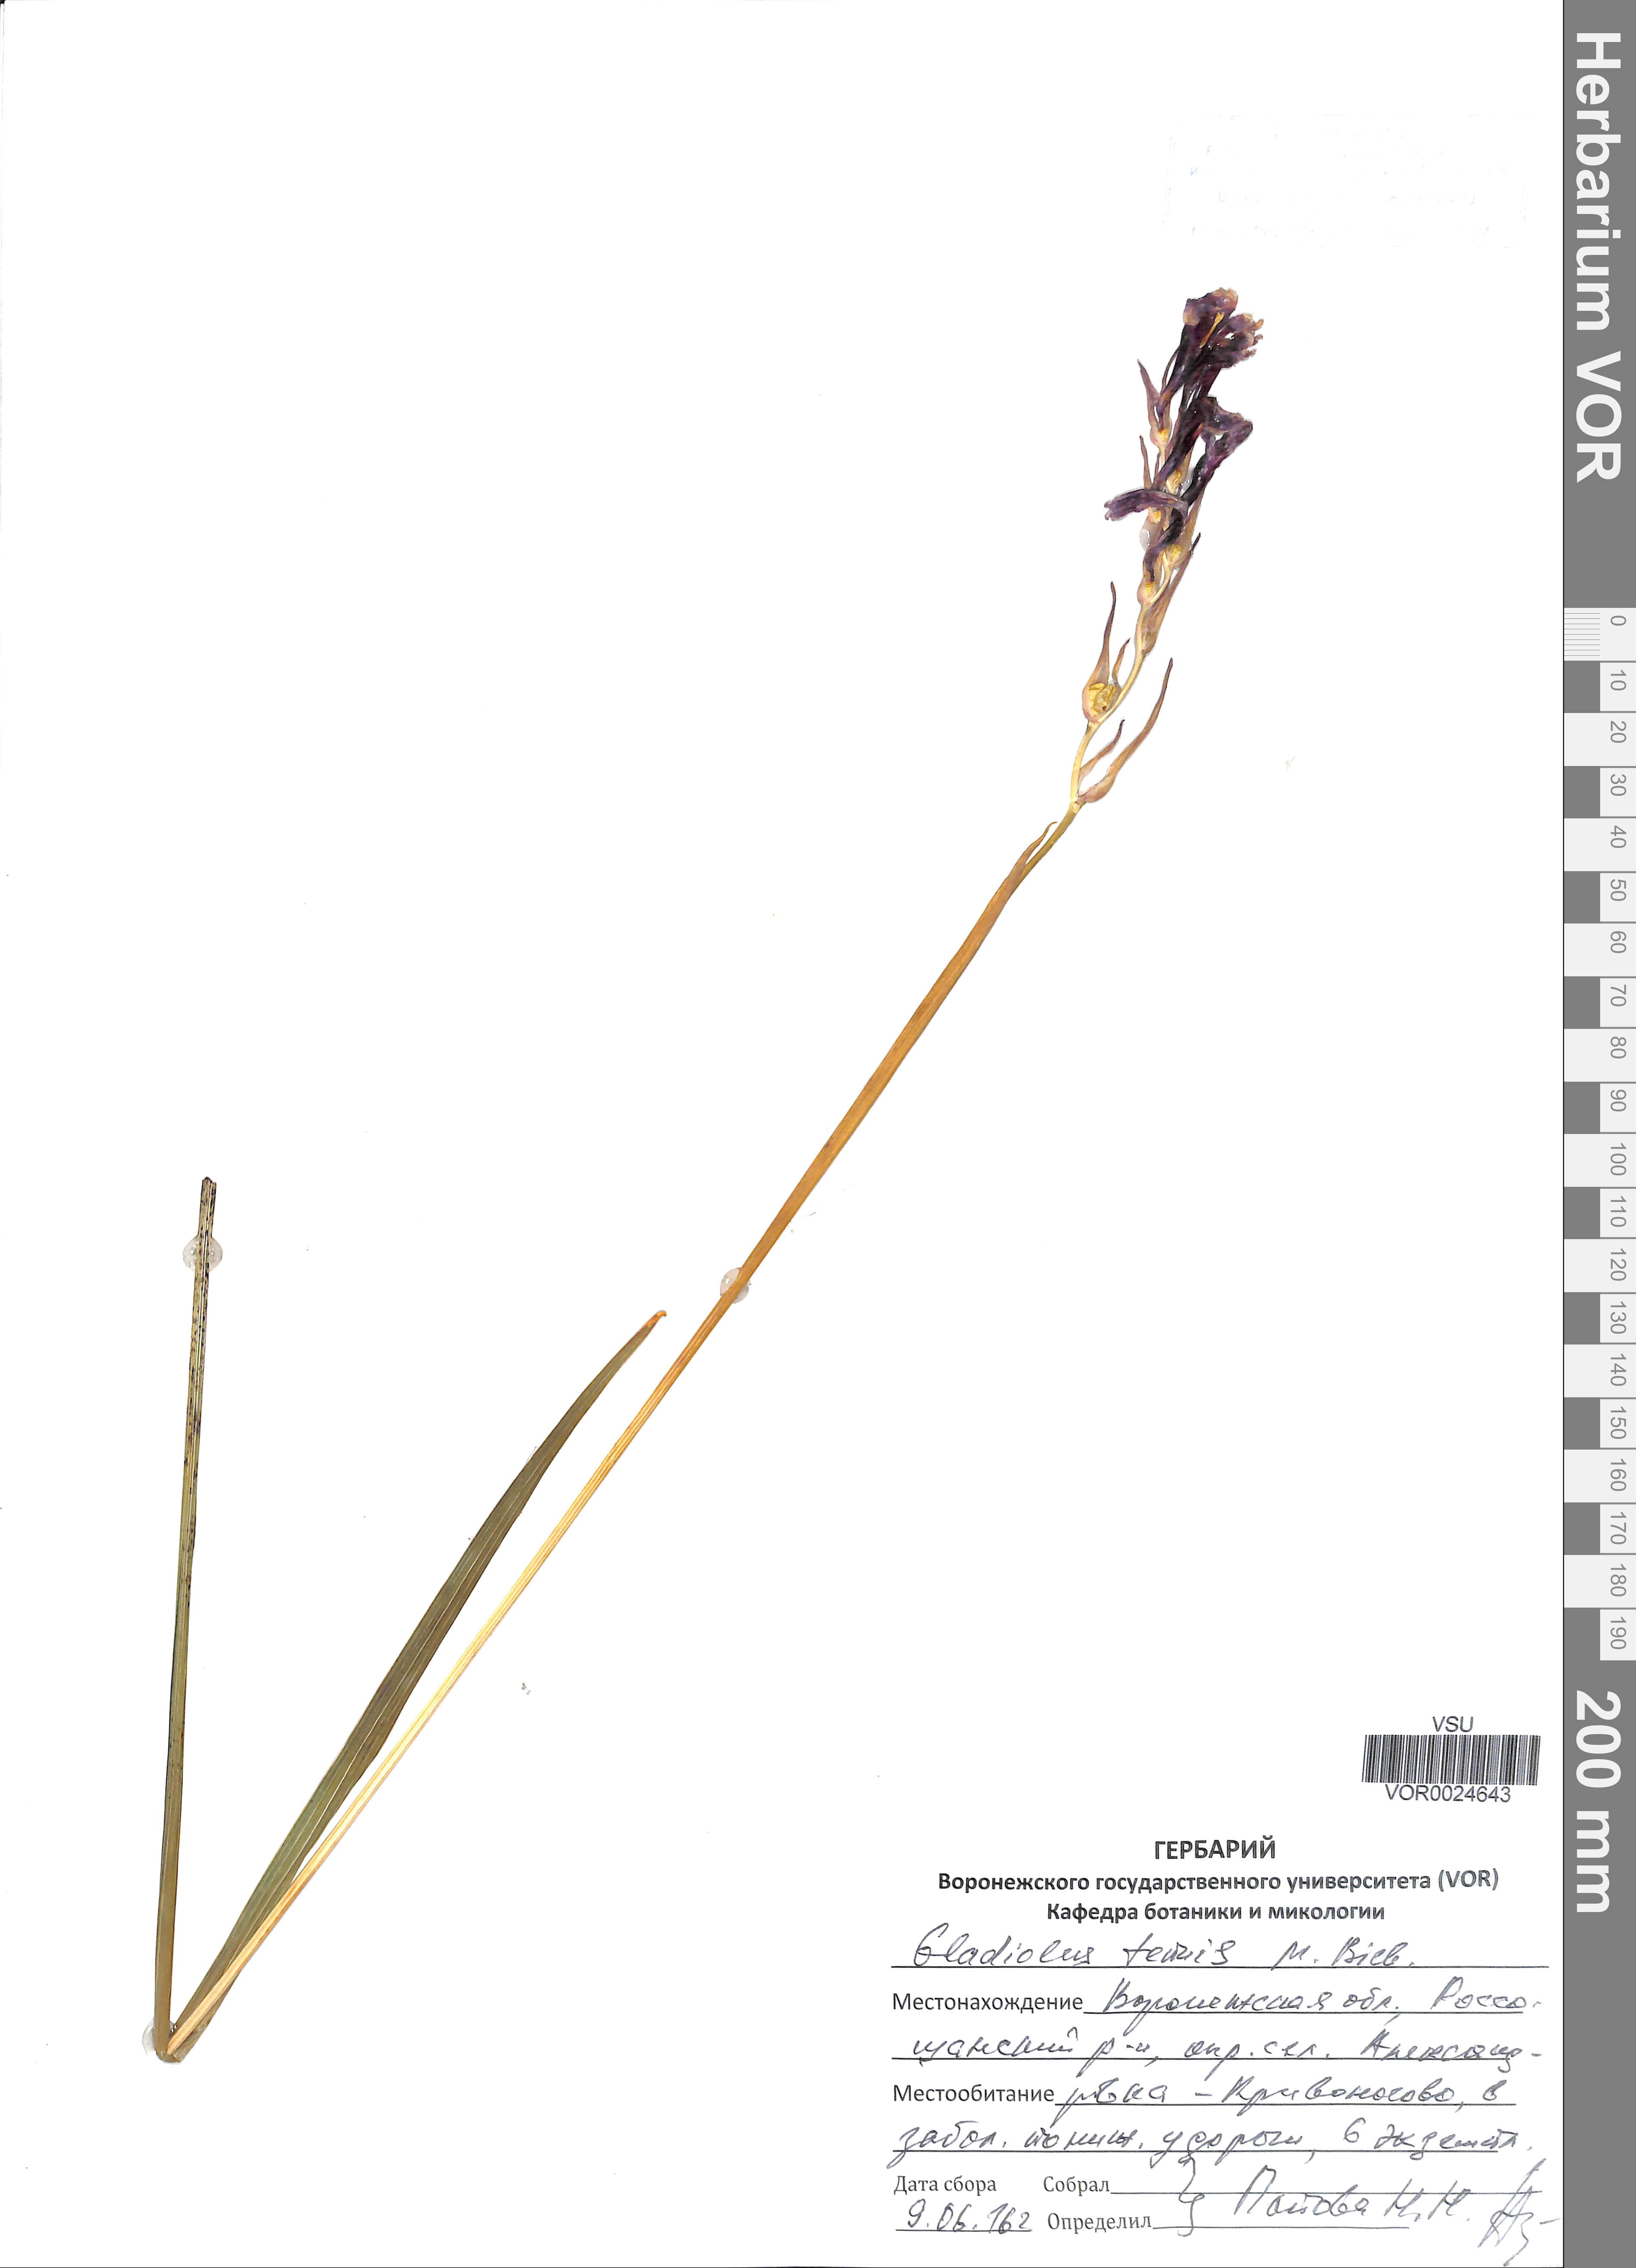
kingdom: Plantae
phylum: Tracheophyta
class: Liliopsida
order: Asparagales
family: Iridaceae
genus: Gladiolus
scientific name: Gladiolus tenuis
